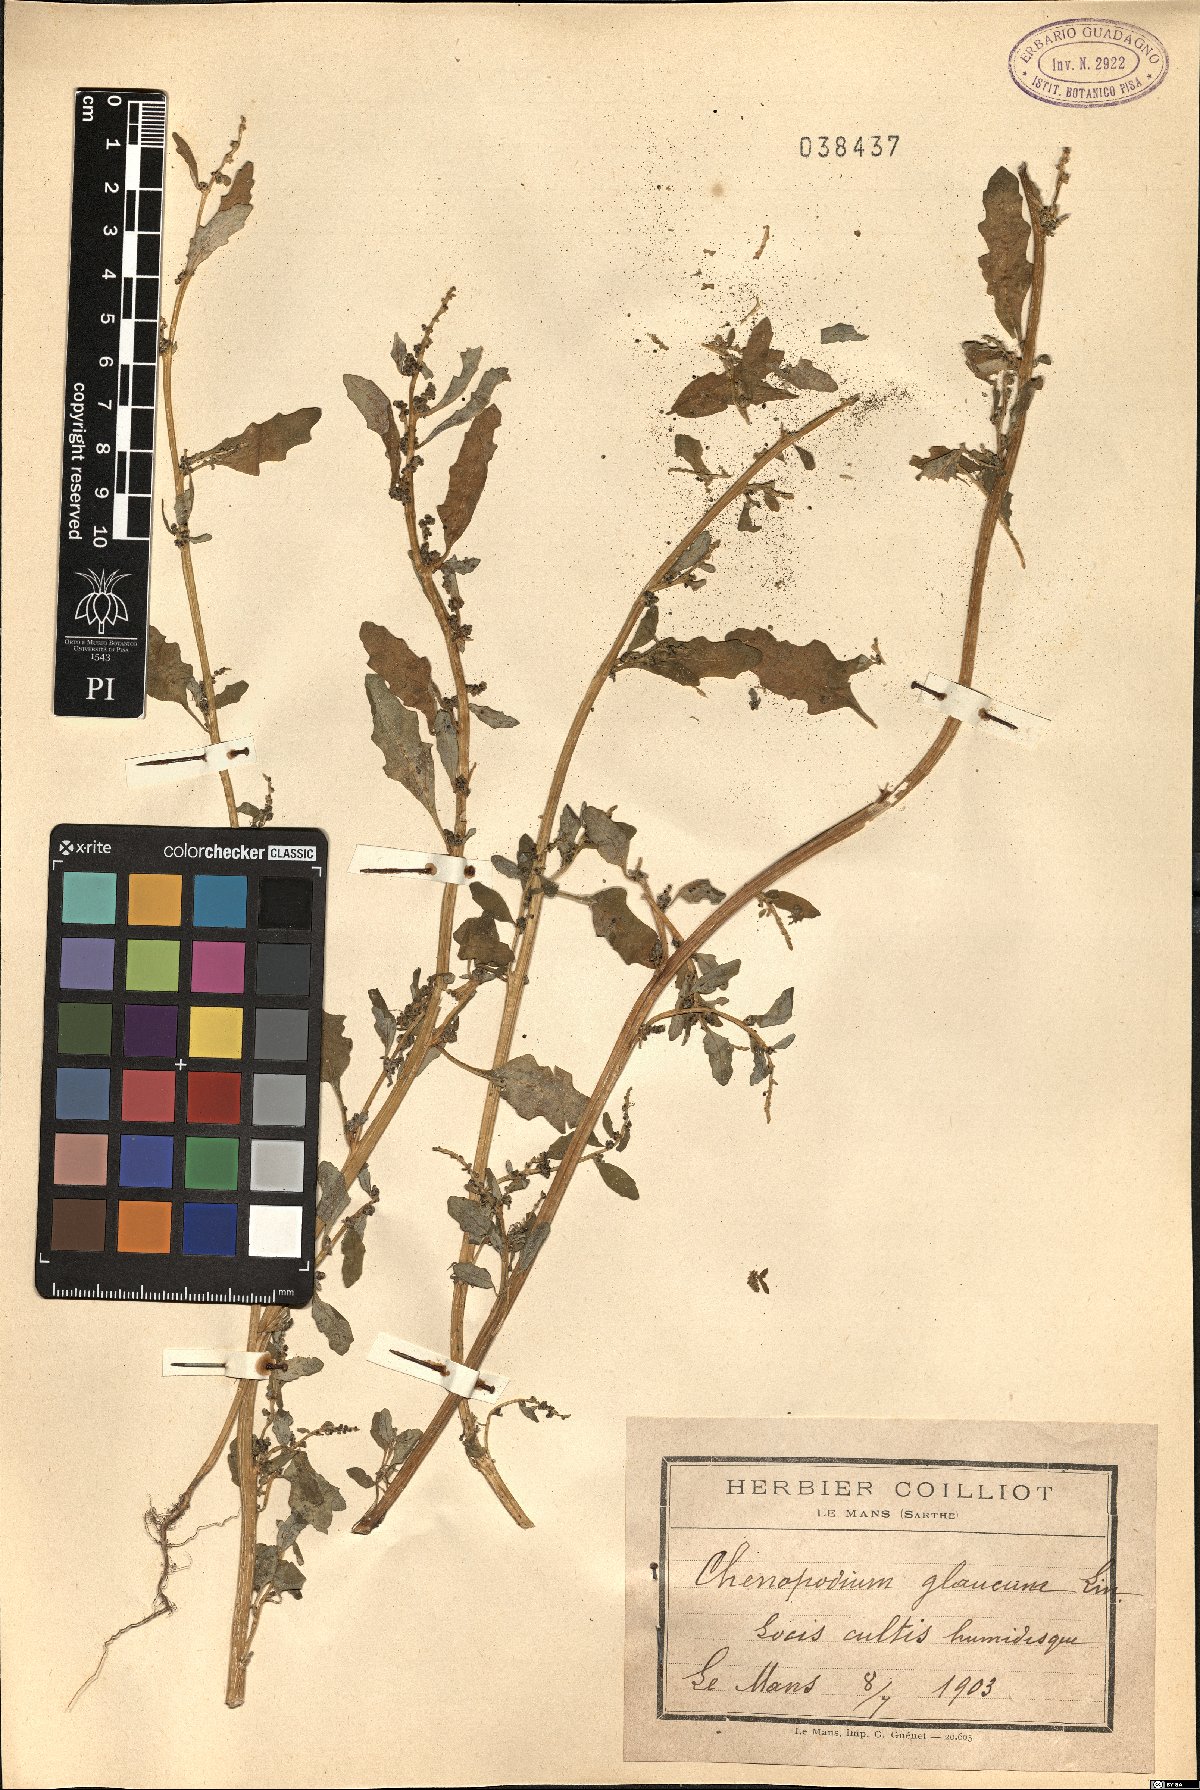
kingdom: Plantae
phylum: Tracheophyta
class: Magnoliopsida
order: Caryophyllales
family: Amaranthaceae
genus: Oxybasis
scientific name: Oxybasis glauca
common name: Glaucous goosefoot
